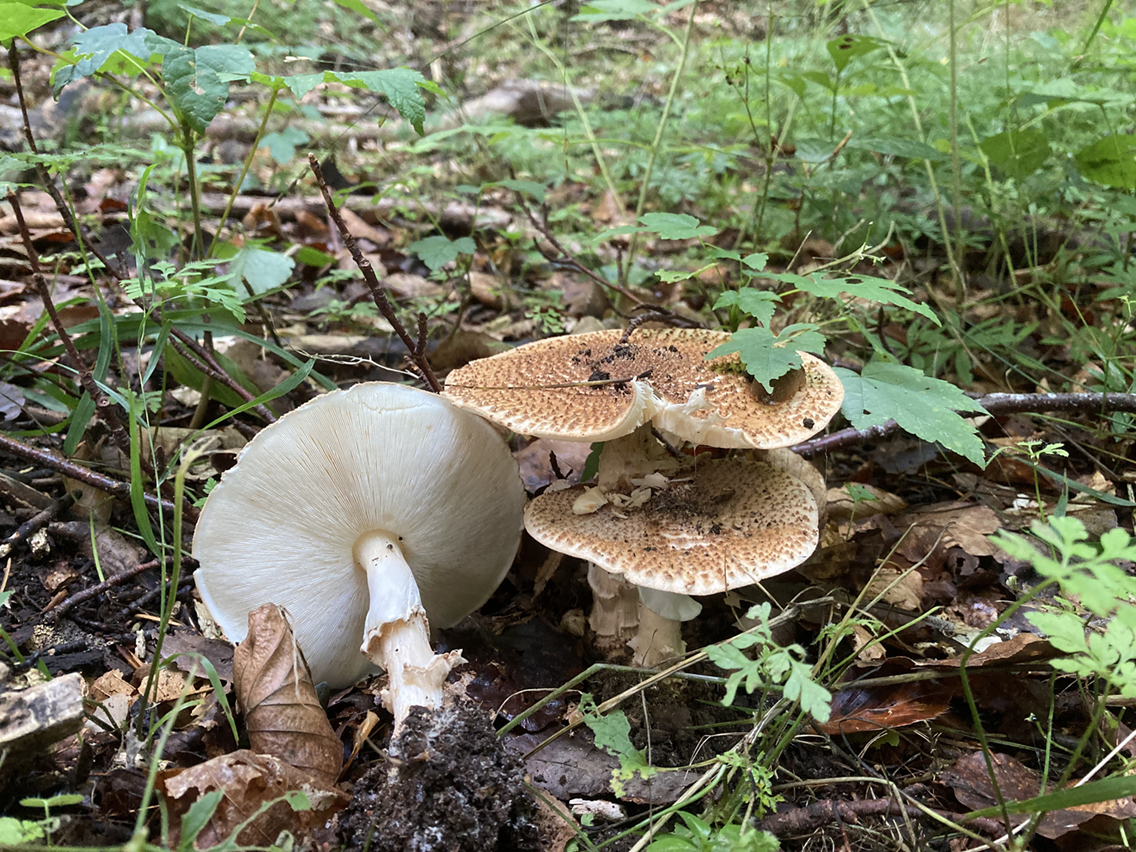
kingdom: Fungi
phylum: Basidiomycota
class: Agaricomycetes
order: Agaricales
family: Agaricaceae
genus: Echinoderma
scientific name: Echinoderma asperum
